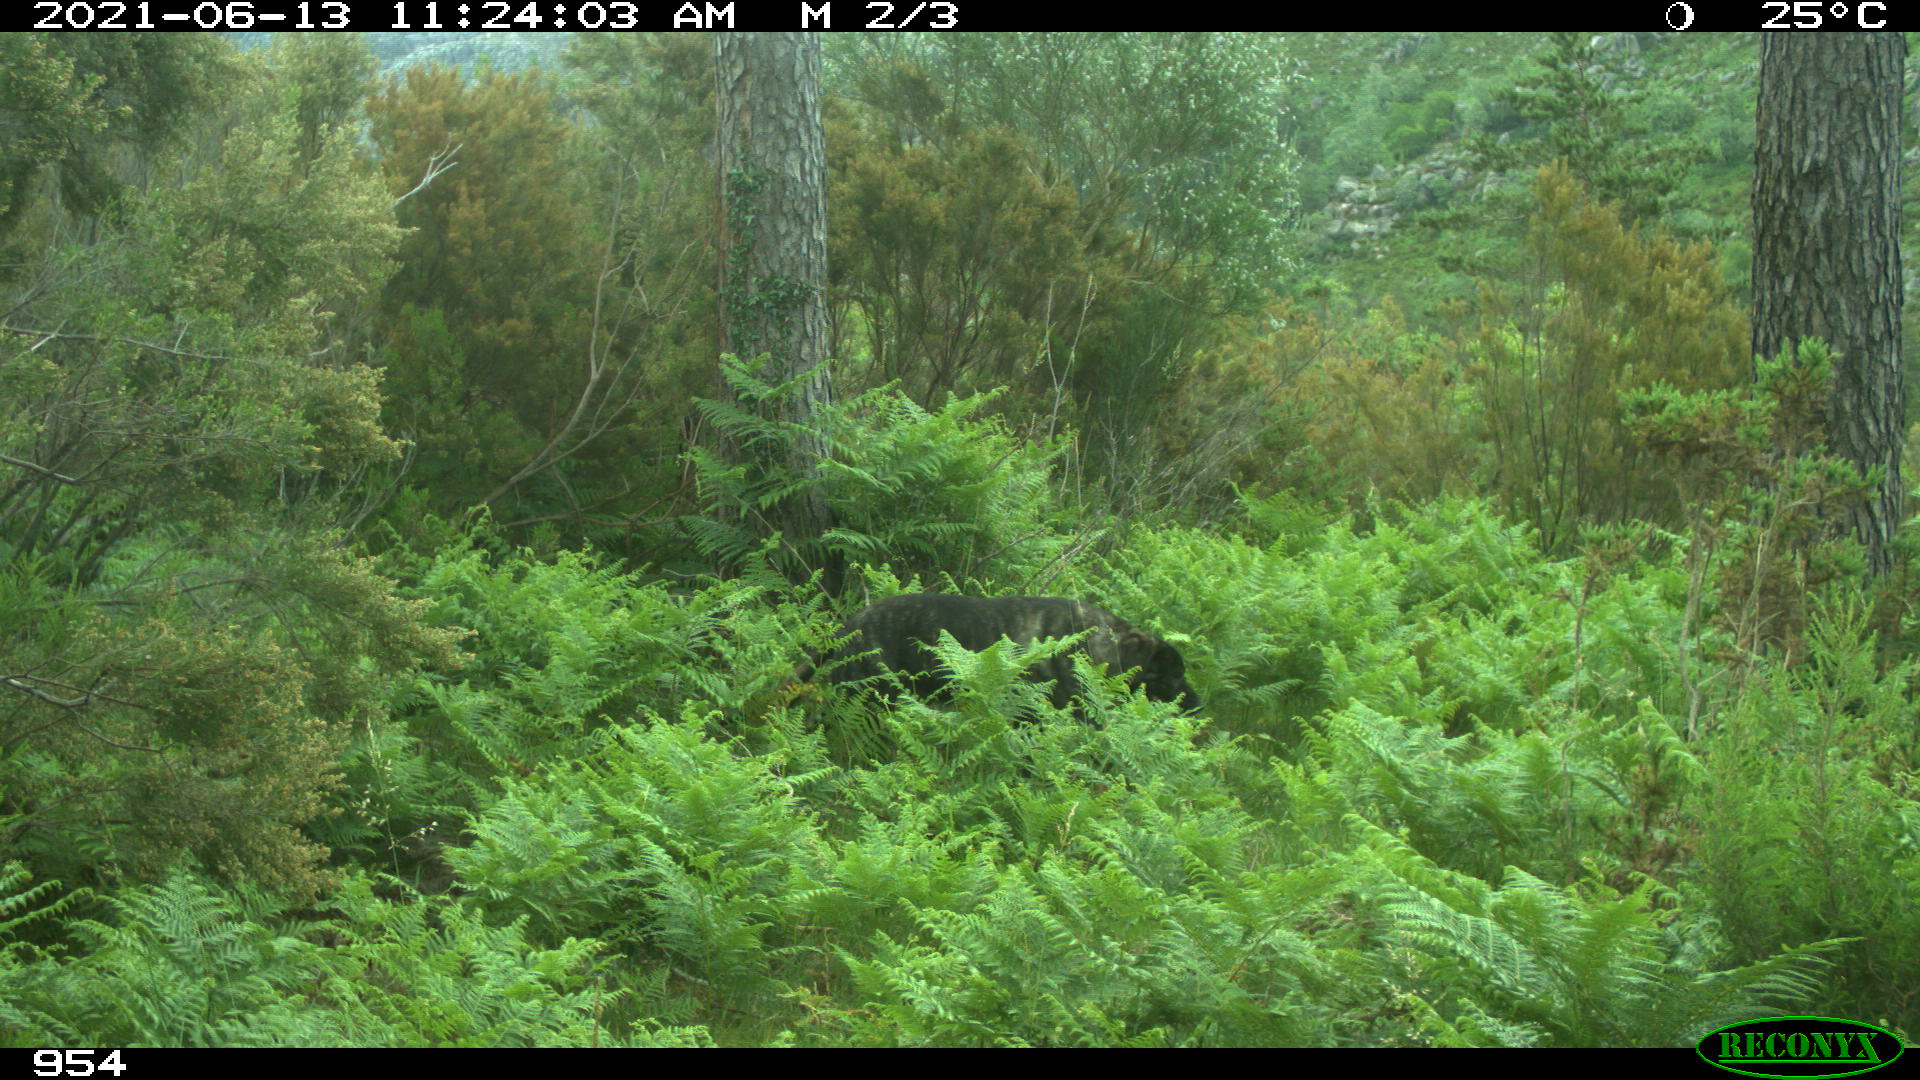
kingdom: Animalia
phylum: Chordata
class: Mammalia
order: Carnivora
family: Canidae
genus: Canis
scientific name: Canis lupus
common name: Gray wolf
